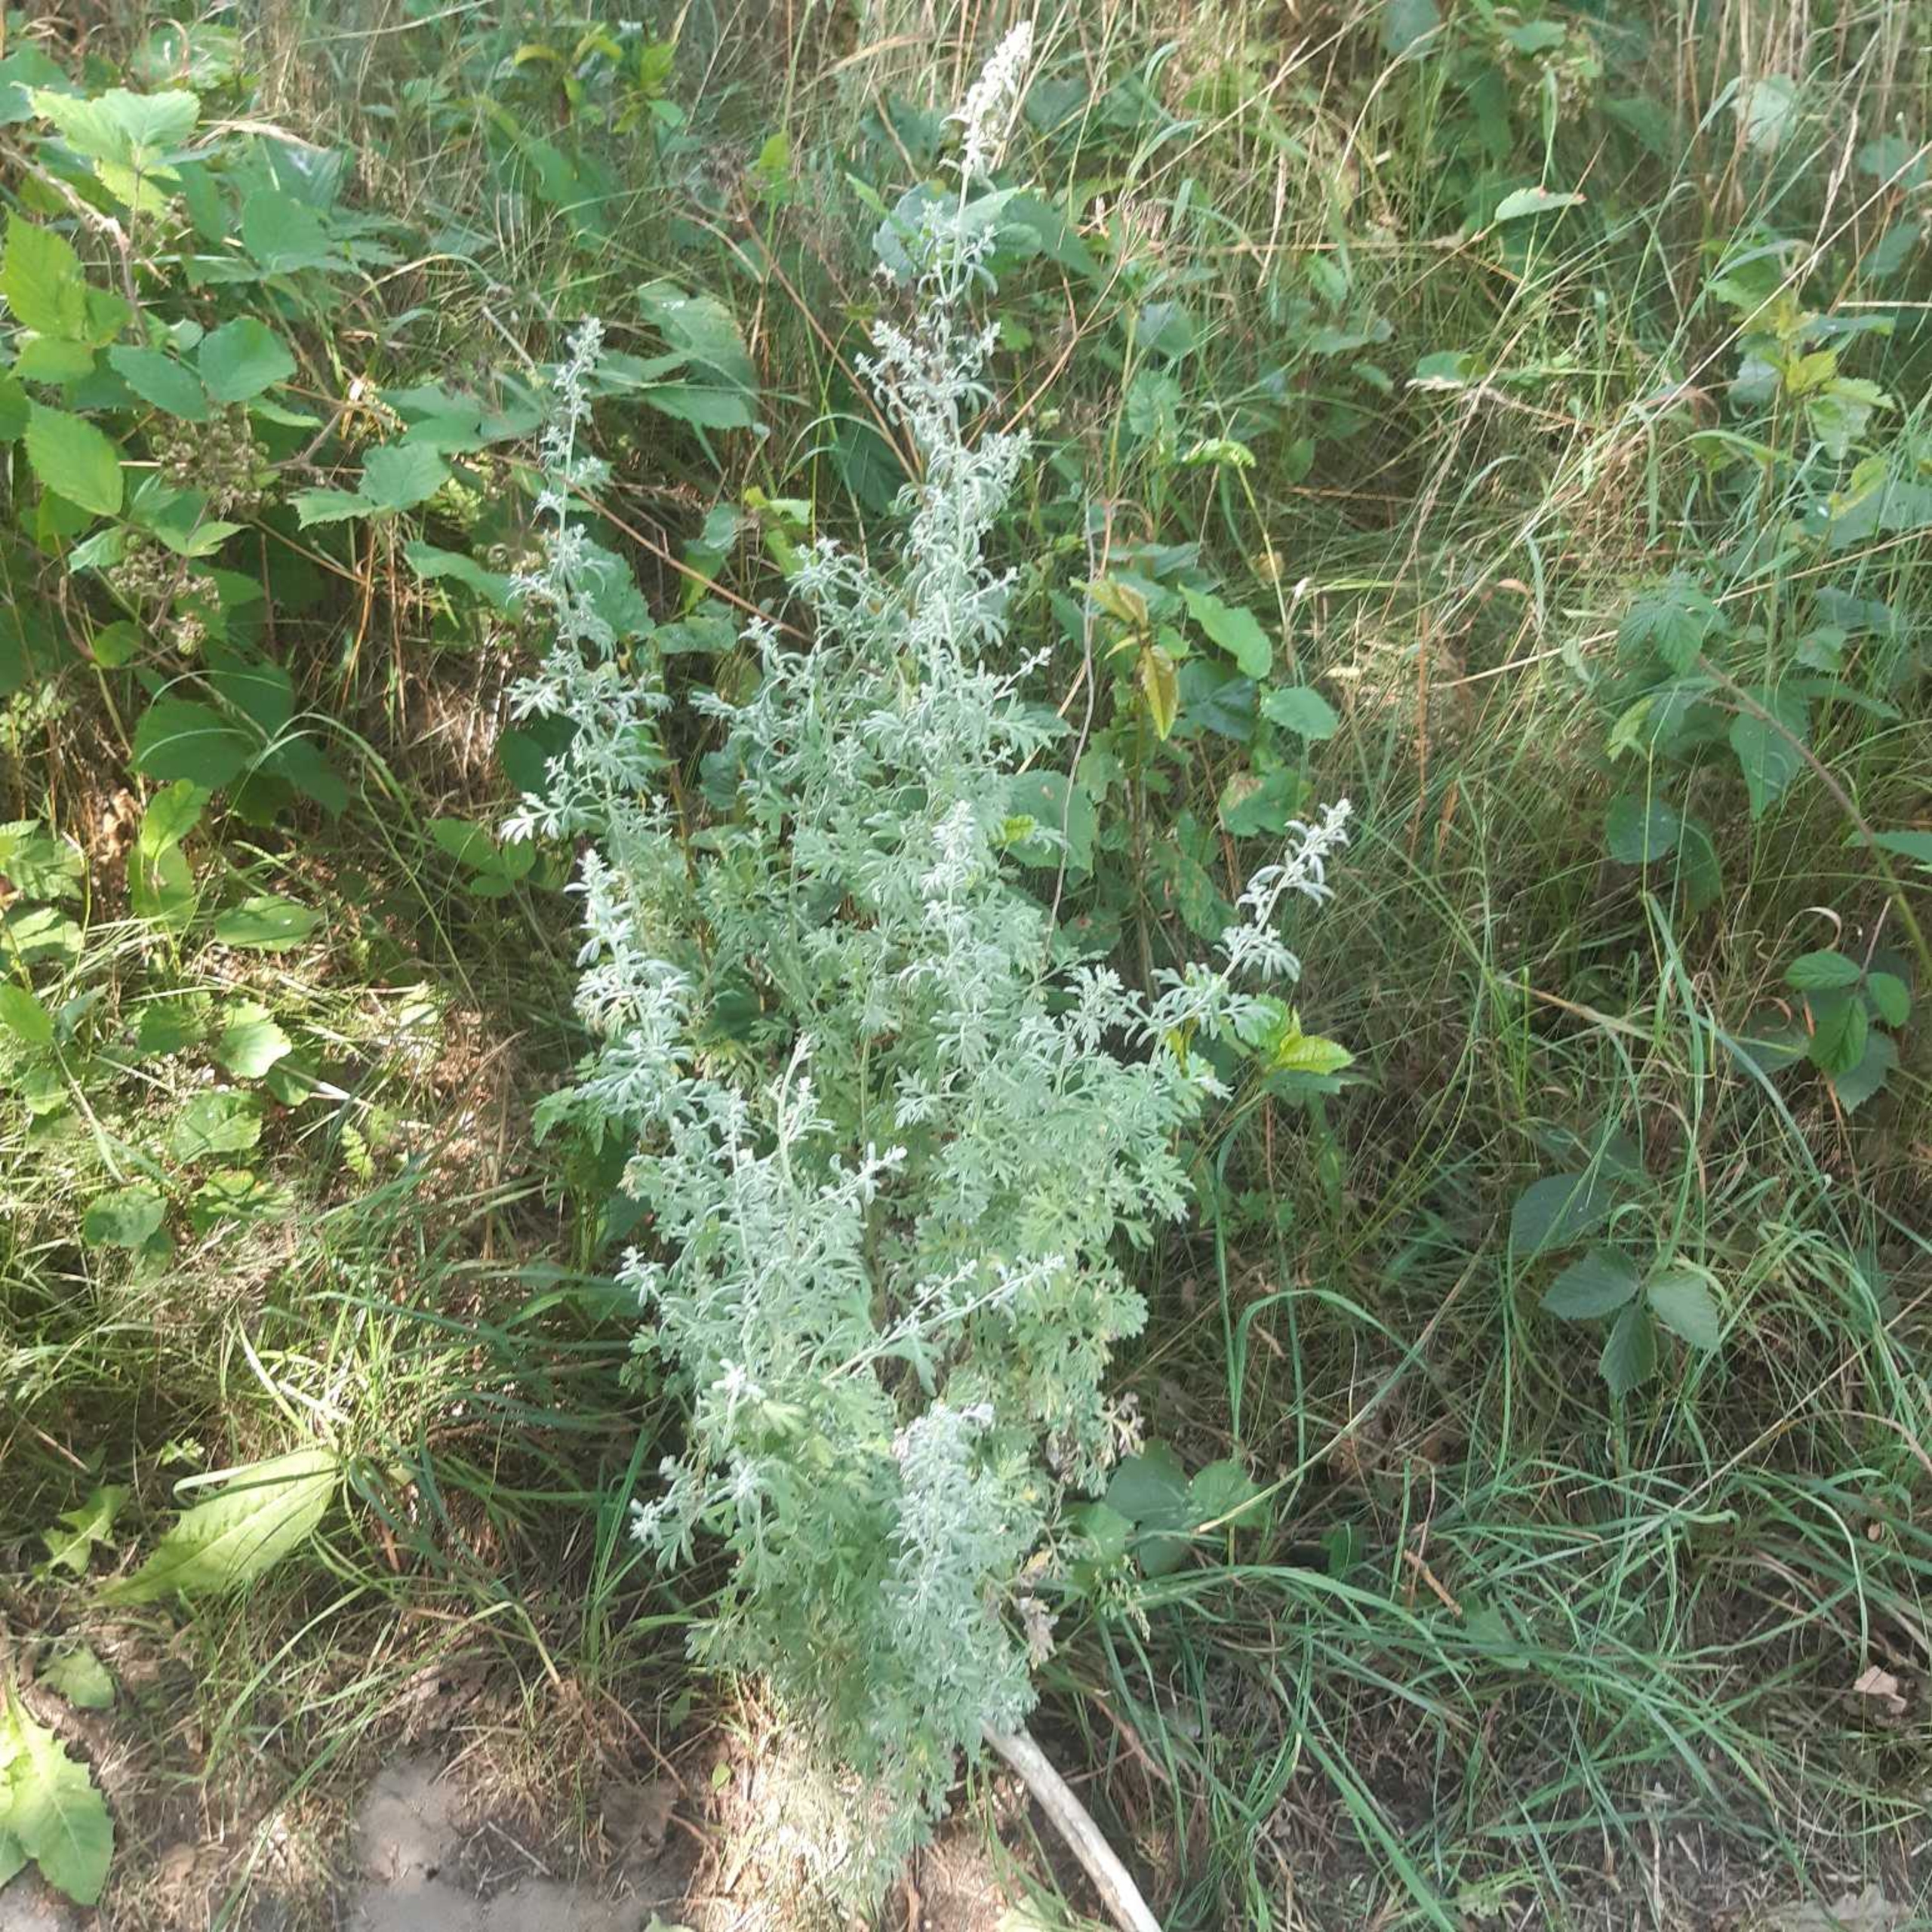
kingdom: Plantae
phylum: Tracheophyta
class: Magnoliopsida
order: Asterales
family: Asteraceae
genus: Artemisia
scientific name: Artemisia absinthium
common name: Havemalurt
